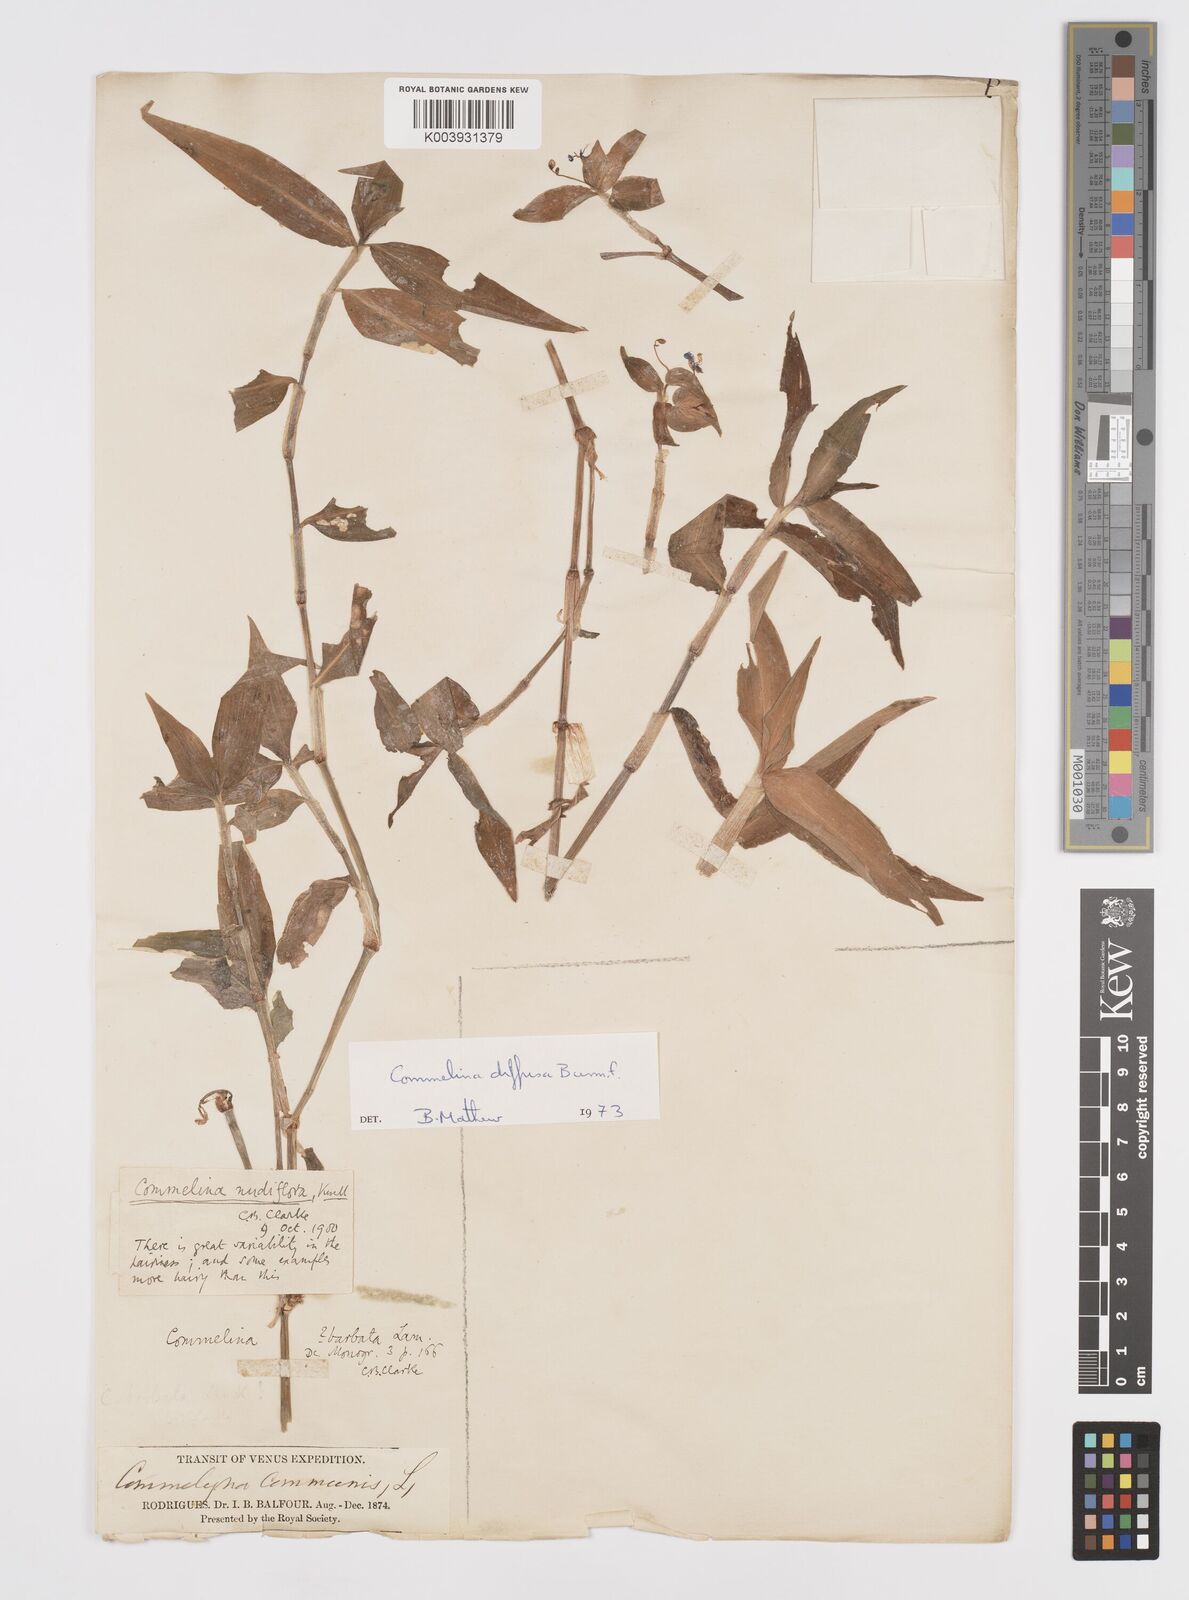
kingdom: Plantae
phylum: Tracheophyta
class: Liliopsida
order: Commelinales
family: Commelinaceae
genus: Murdannia
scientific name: Murdannia nudiflora
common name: Nakedstem dewflower
